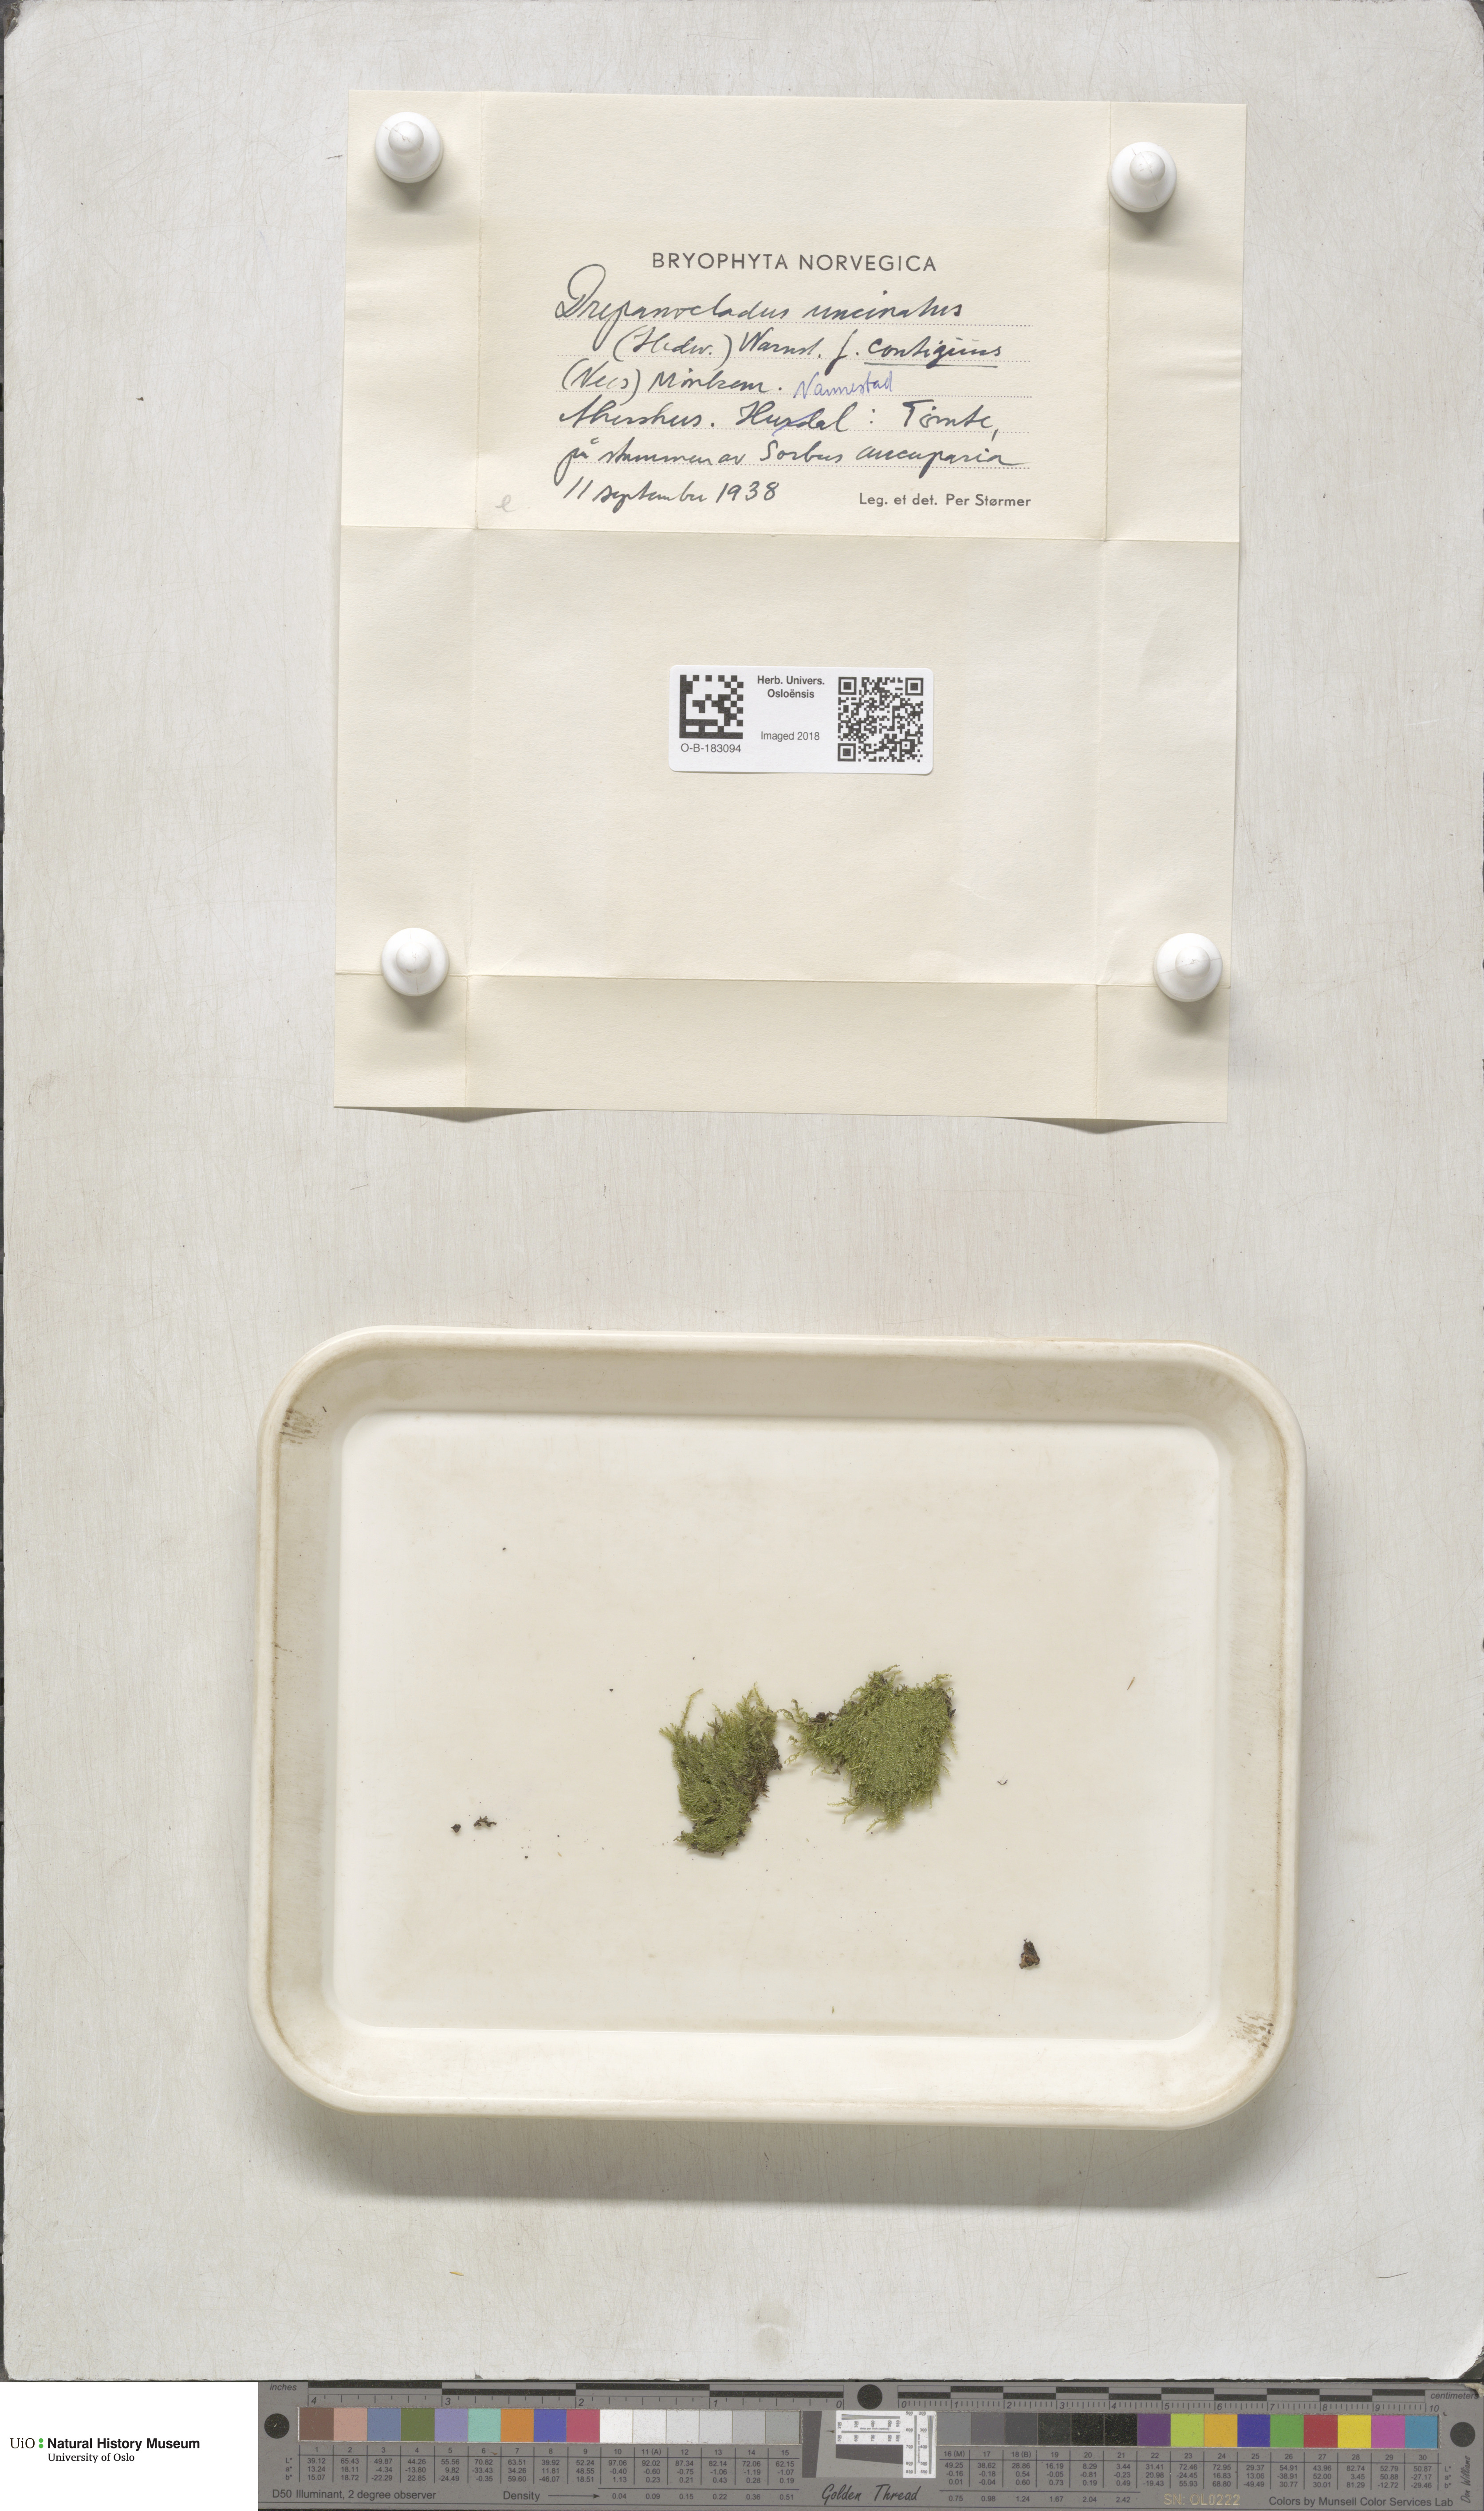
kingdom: Plantae
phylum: Bryophyta
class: Bryopsida
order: Hypnales
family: Scorpidiaceae
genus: Sanionia
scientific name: Sanionia uncinata
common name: Sickle moss
